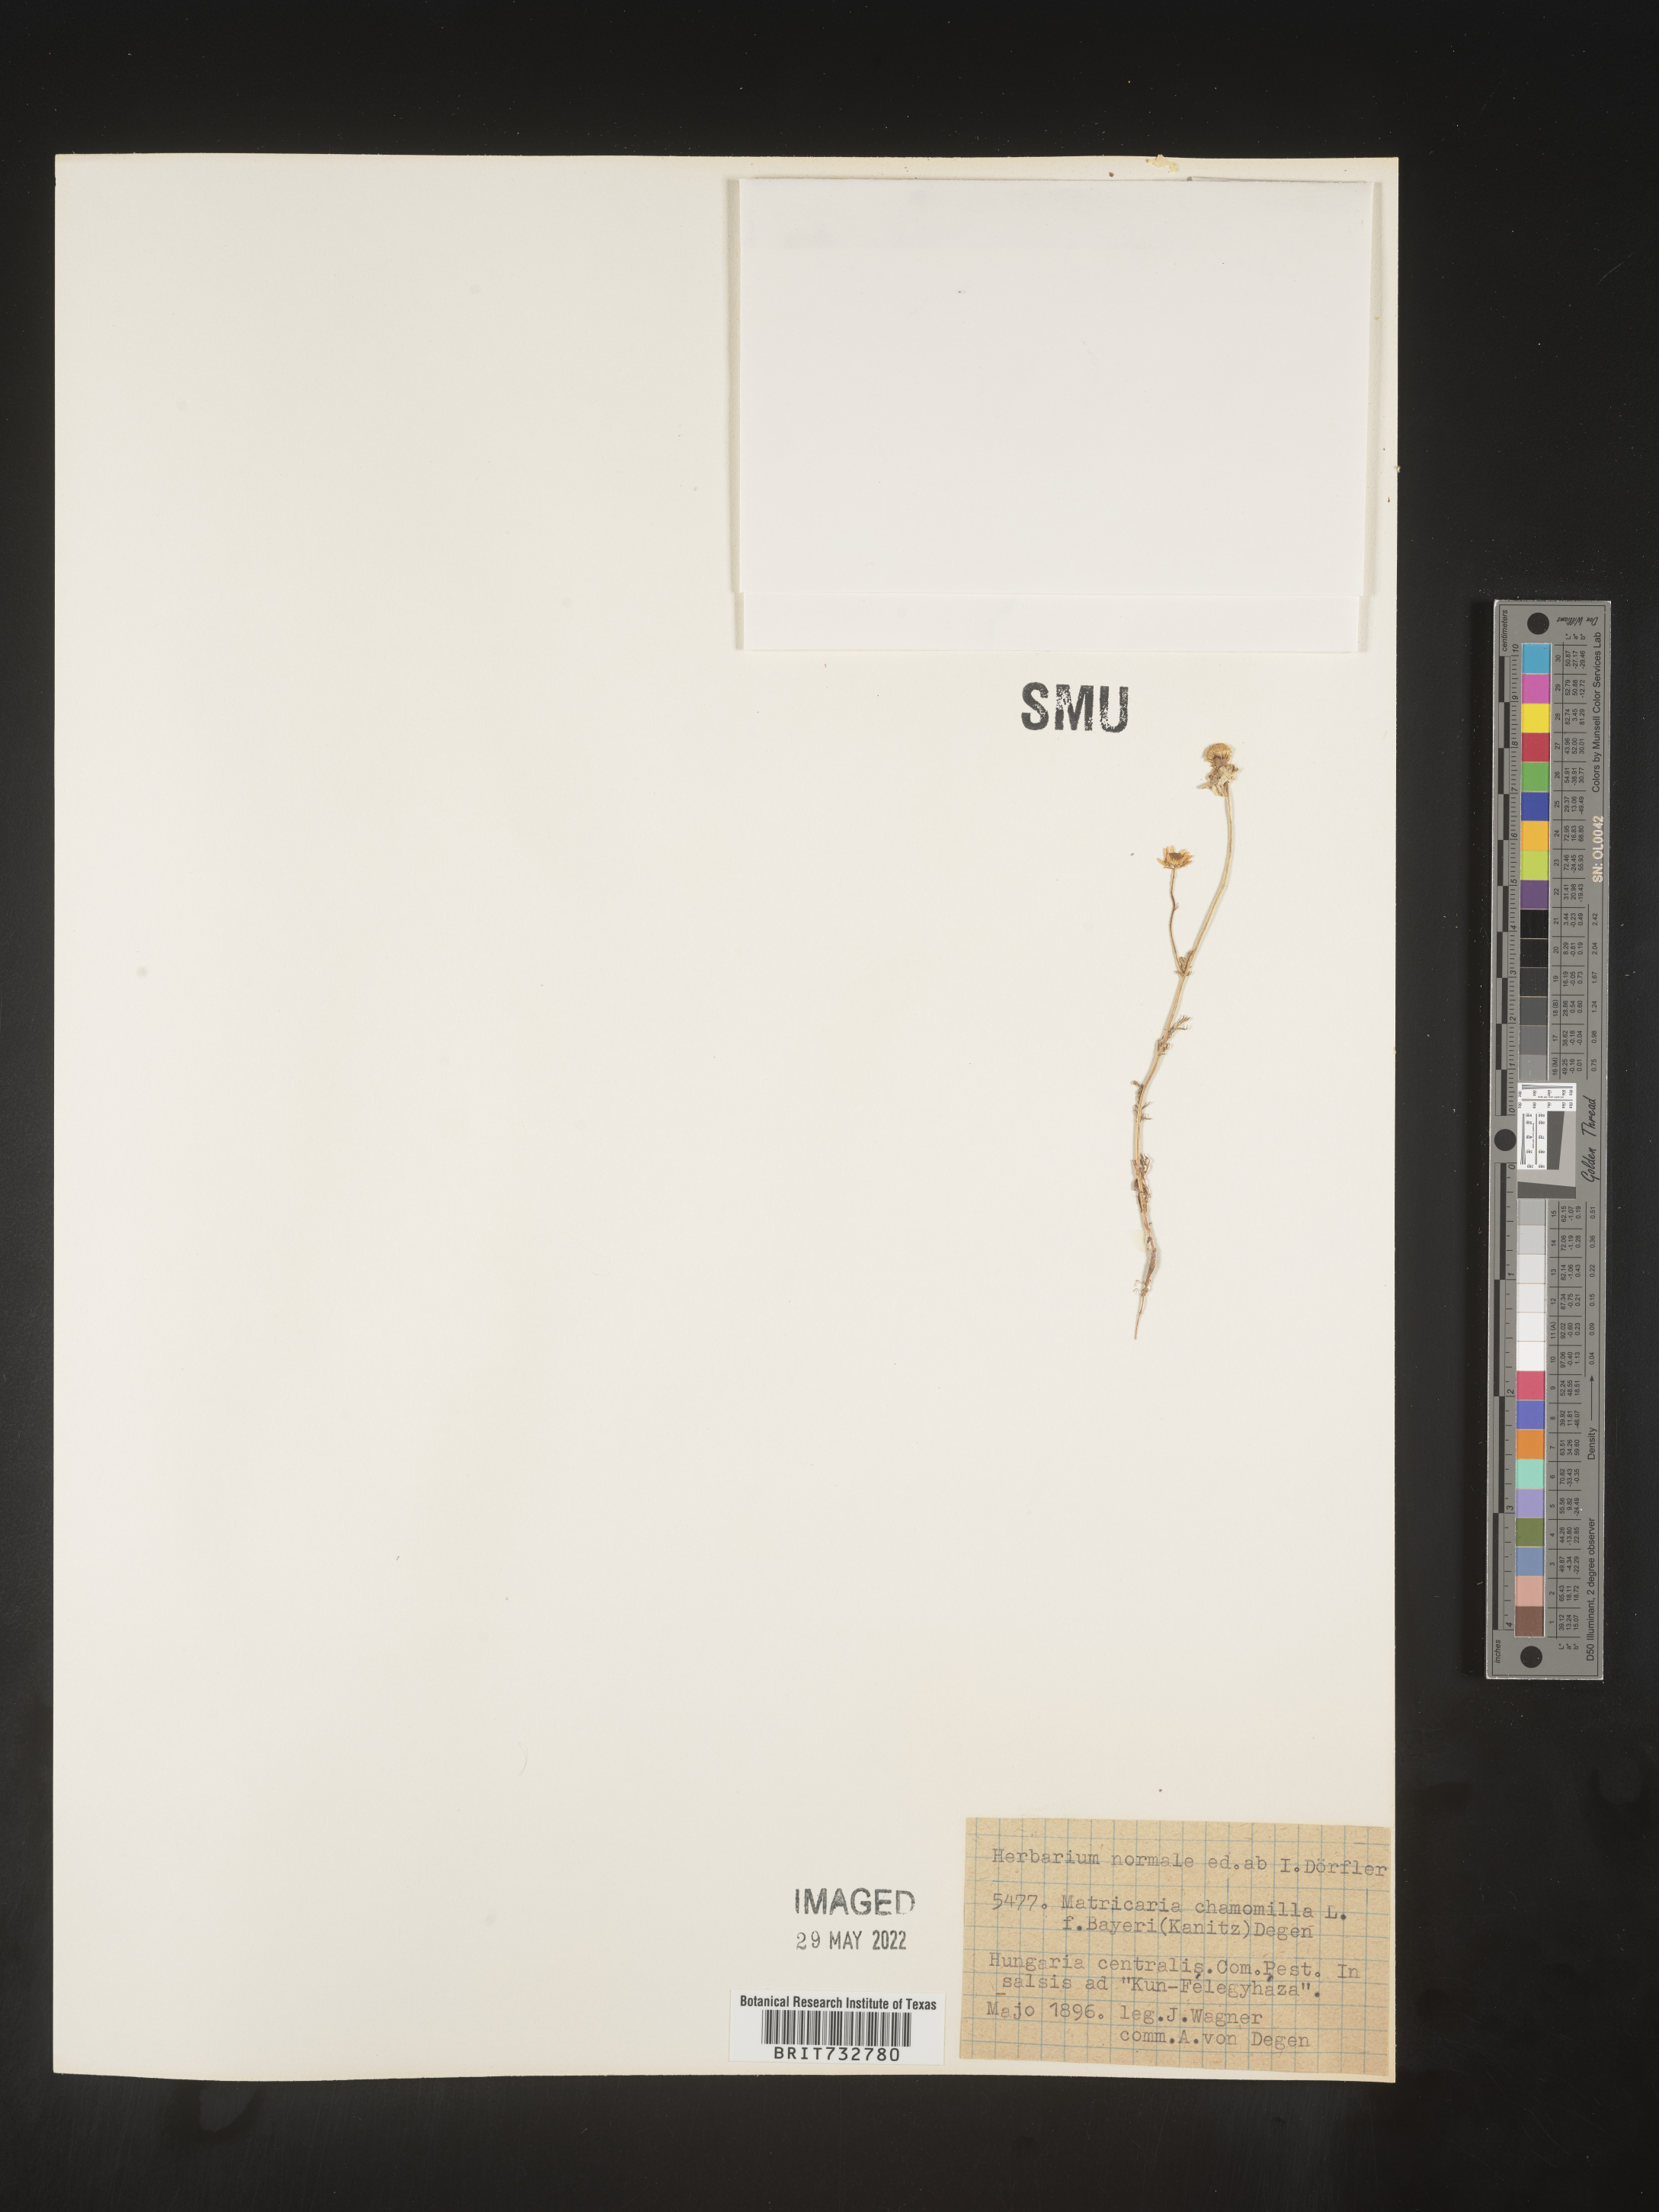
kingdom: Plantae
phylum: Tracheophyta
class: Magnoliopsida
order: Asterales
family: Asteraceae
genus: Matricaria
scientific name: Matricaria
